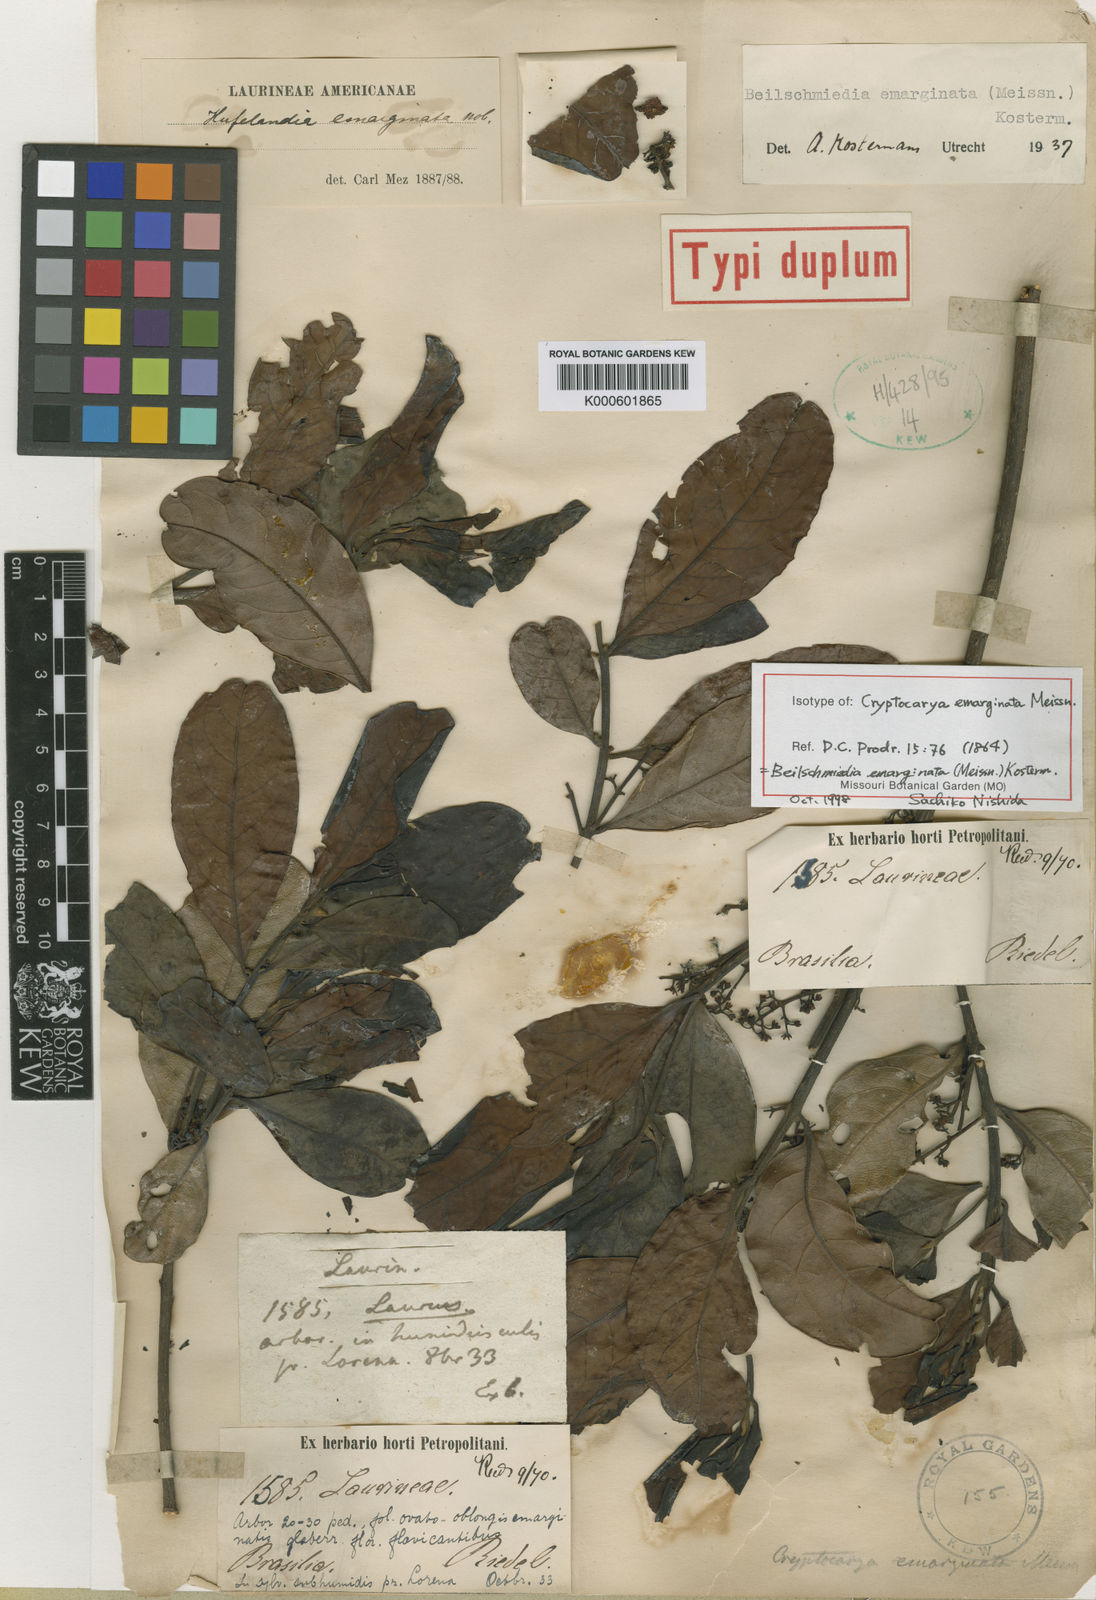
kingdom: Plantae
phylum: Tracheophyta
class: Magnoliopsida
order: Laurales
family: Lauraceae
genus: Beilschmiedia
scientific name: Beilschmiedia emarginata
